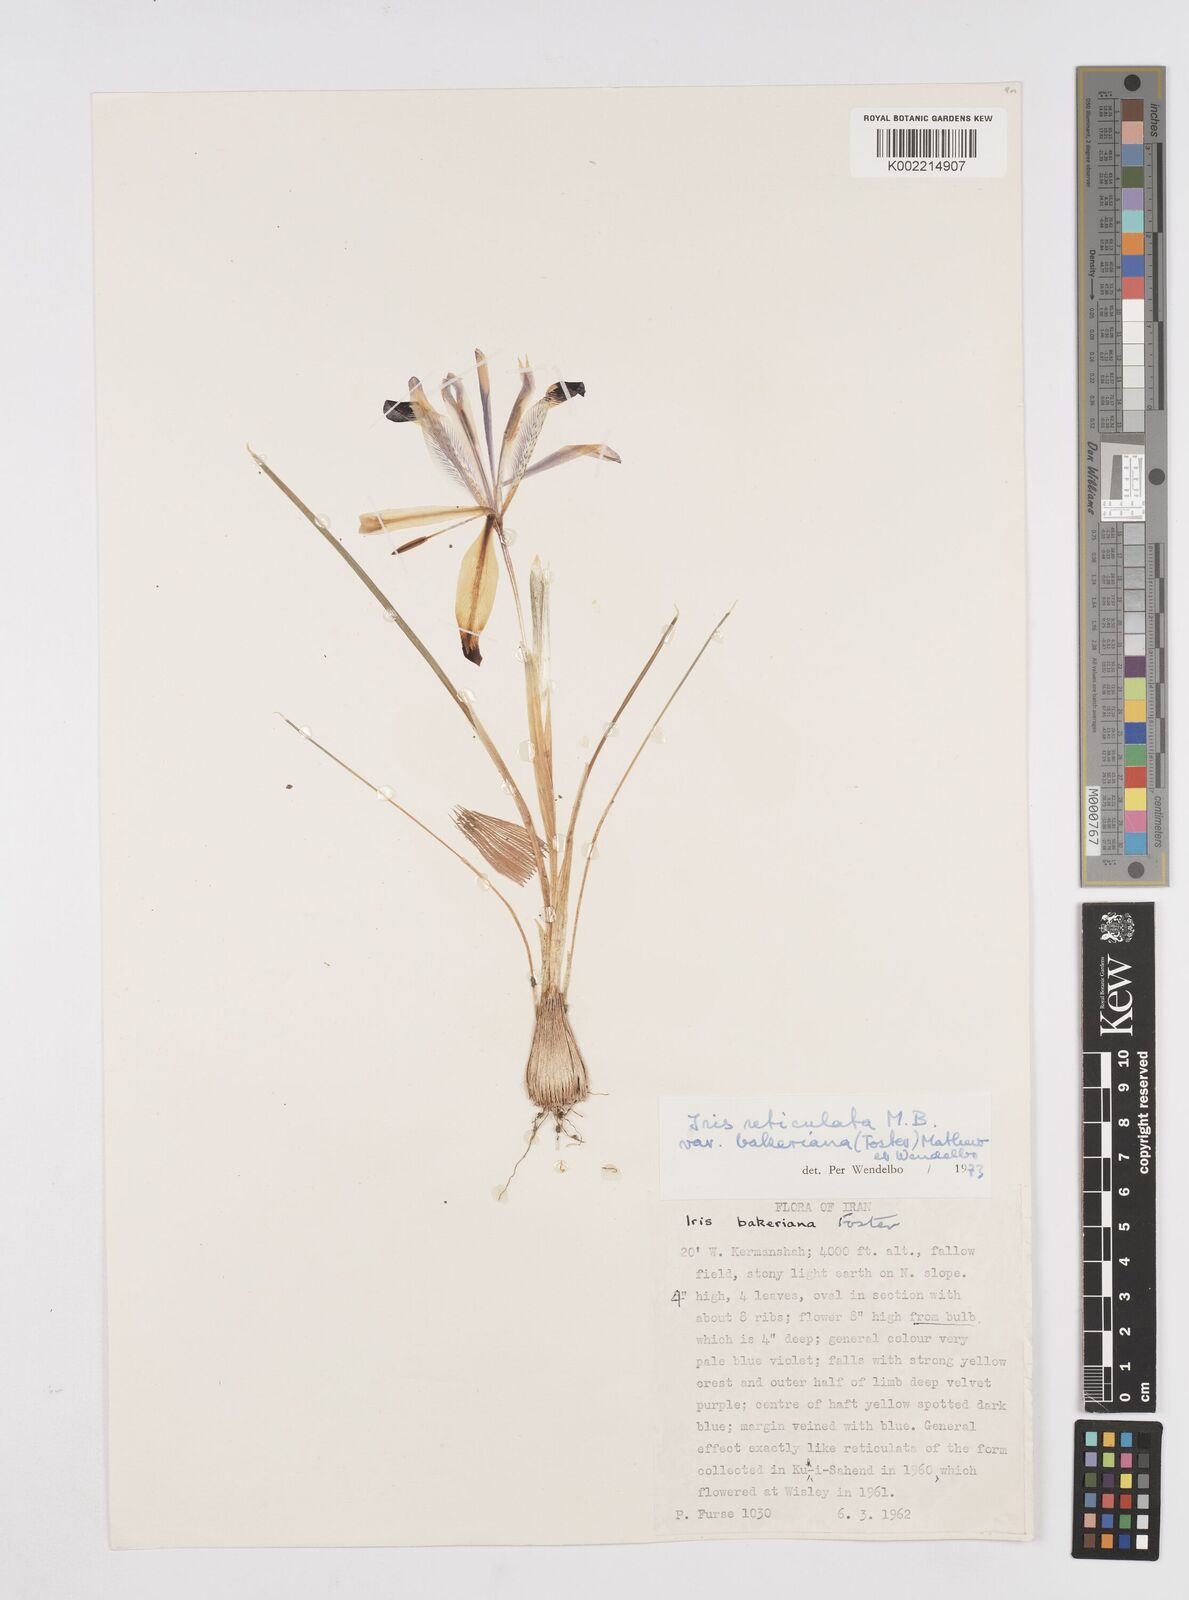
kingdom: Plantae
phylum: Tracheophyta
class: Liliopsida
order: Asparagales
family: Iridaceae
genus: Iris
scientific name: Iris reticulata
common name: Netted iris
